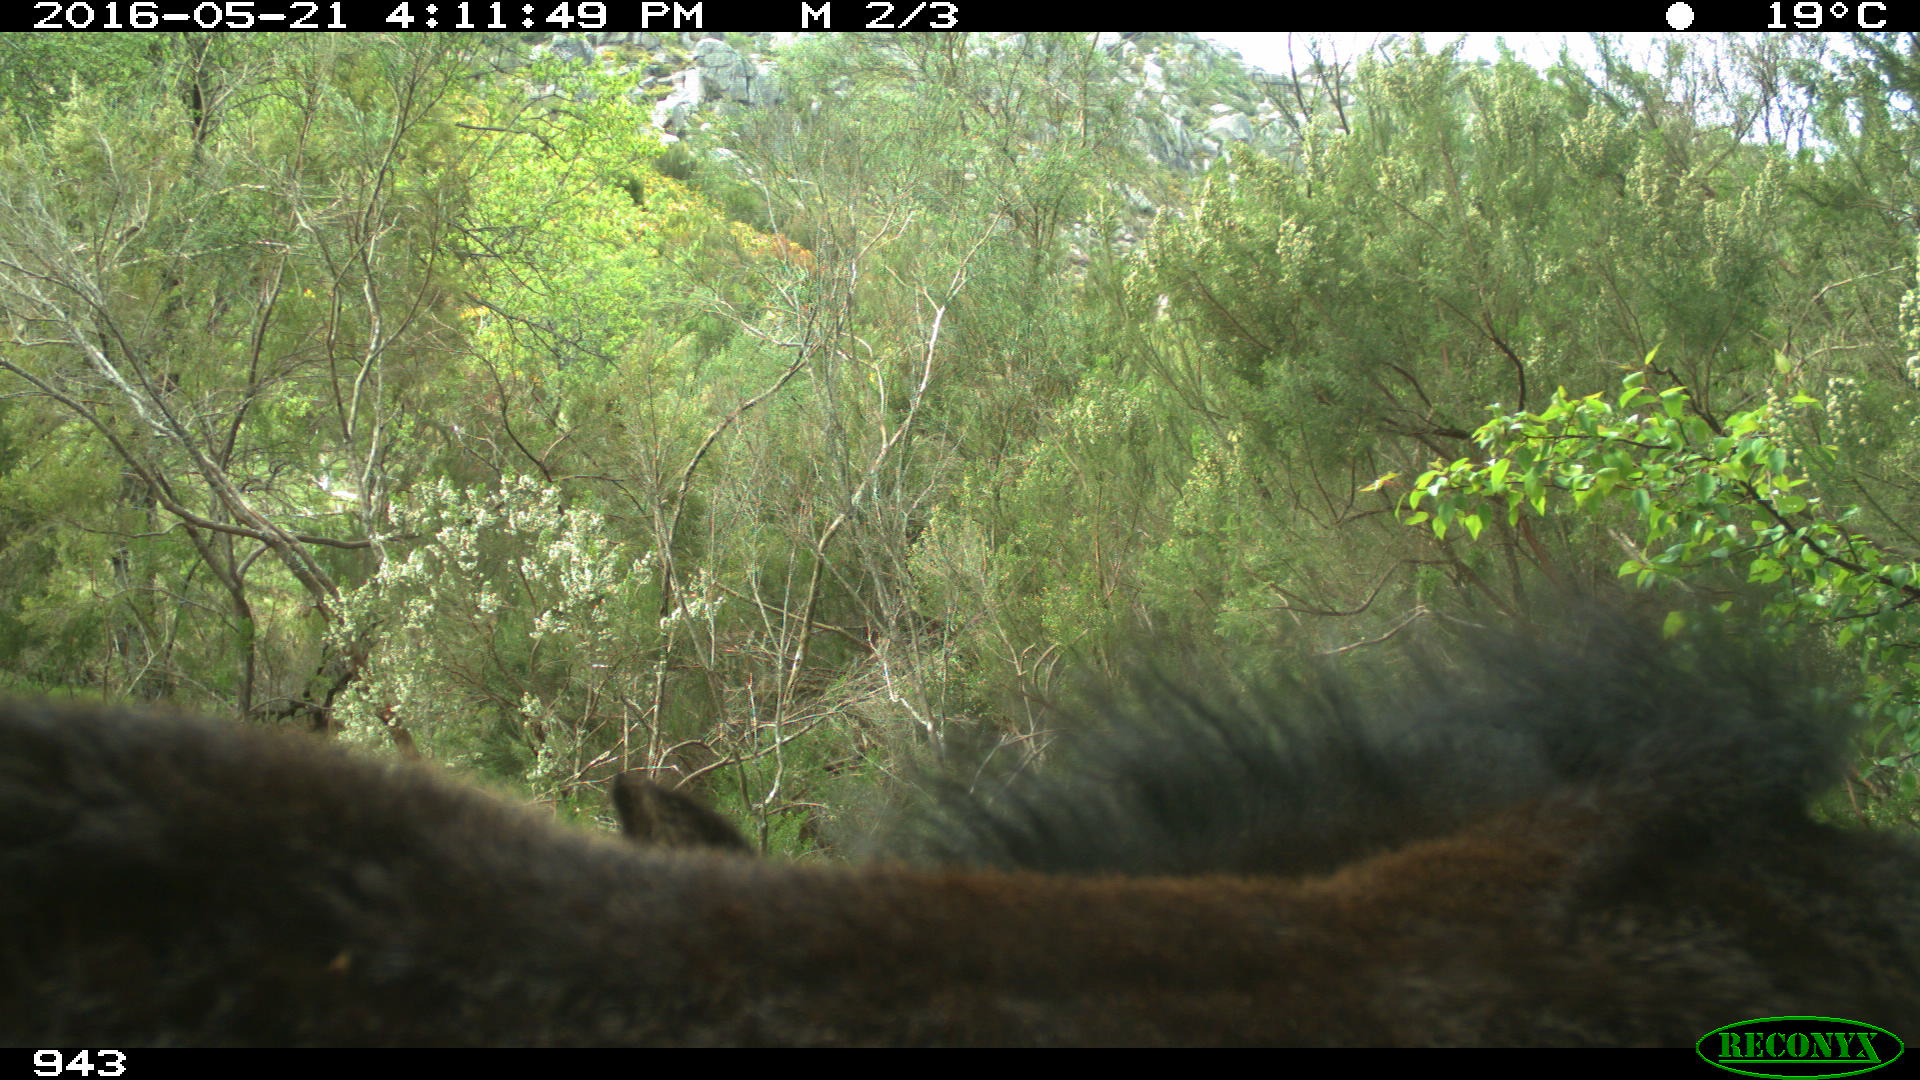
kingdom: Animalia
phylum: Chordata
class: Mammalia
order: Perissodactyla
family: Equidae
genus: Equus
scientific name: Equus caballus
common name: Horse
